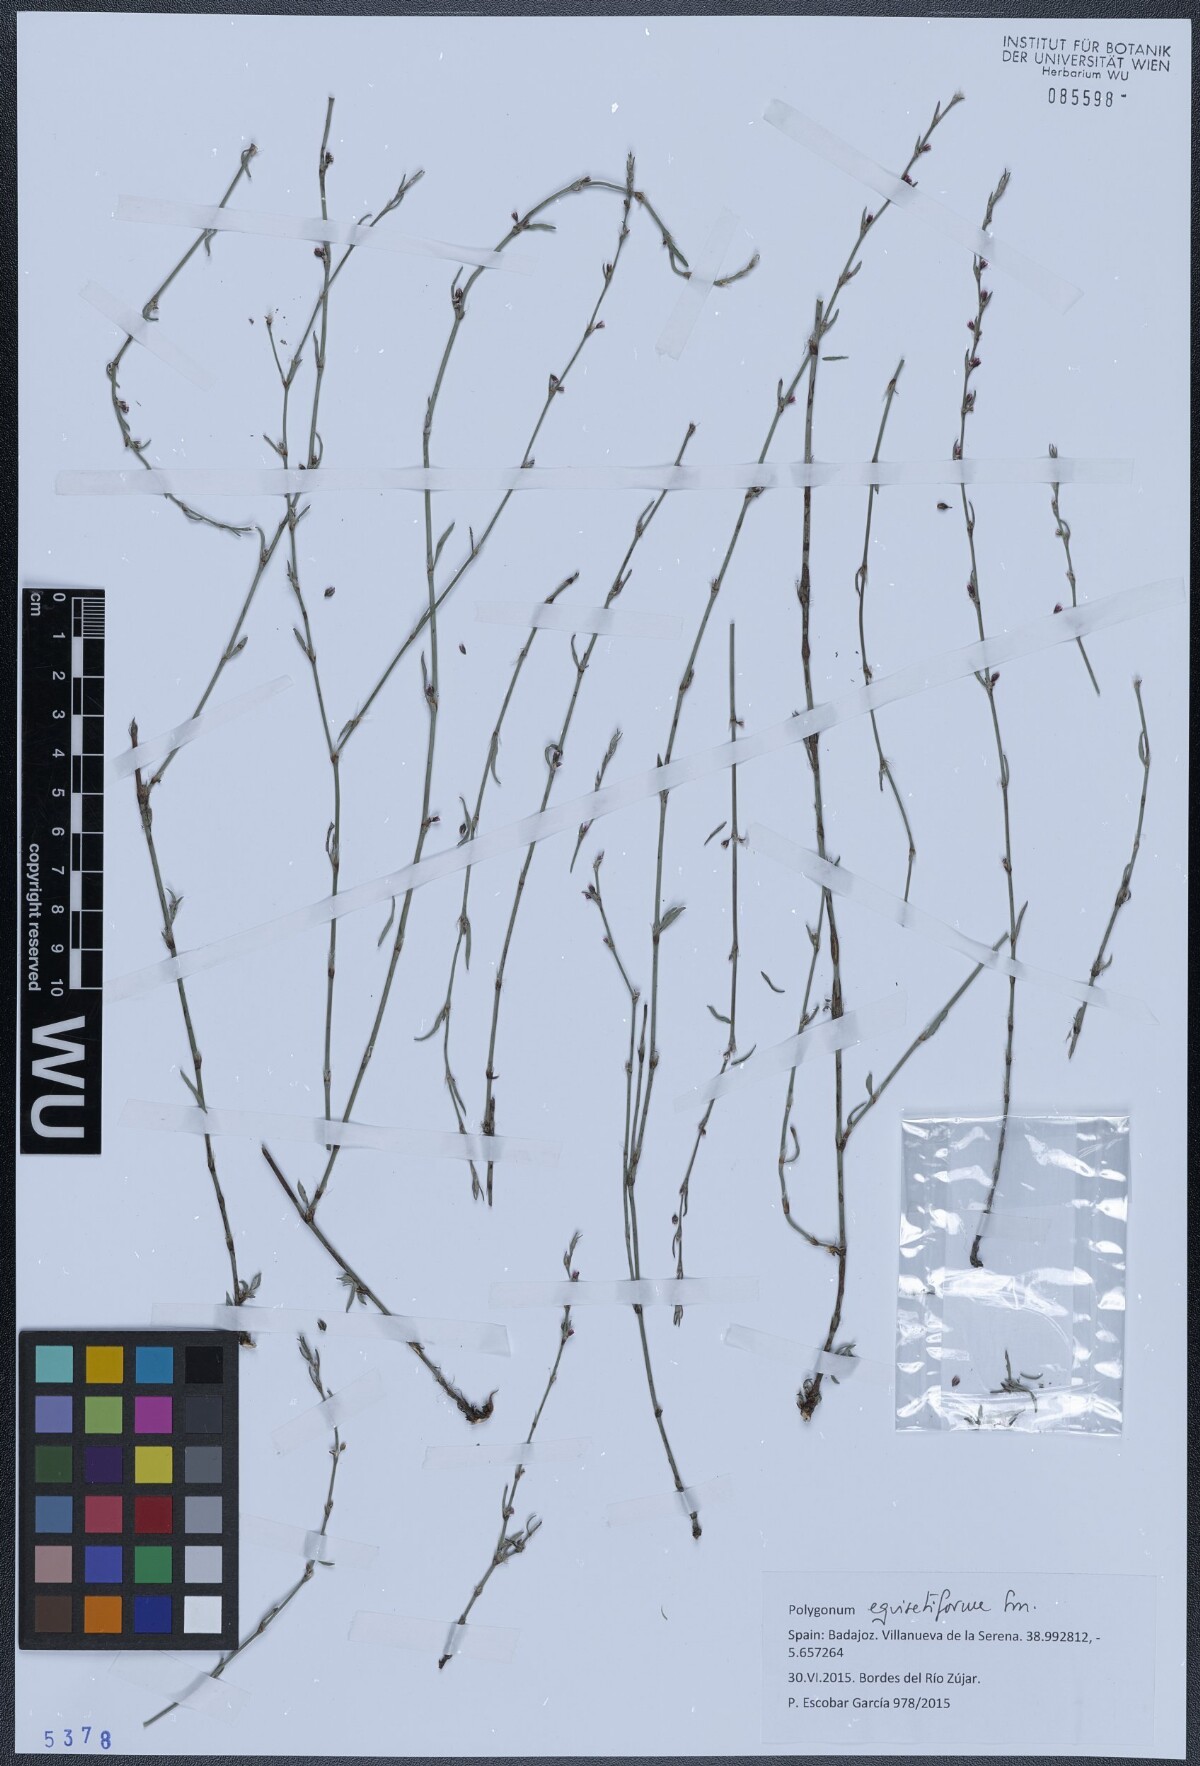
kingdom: Plantae
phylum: Tracheophyta
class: Magnoliopsida
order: Caryophyllales
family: Polygonaceae
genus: Polygonum
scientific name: Polygonum equisetiforme
